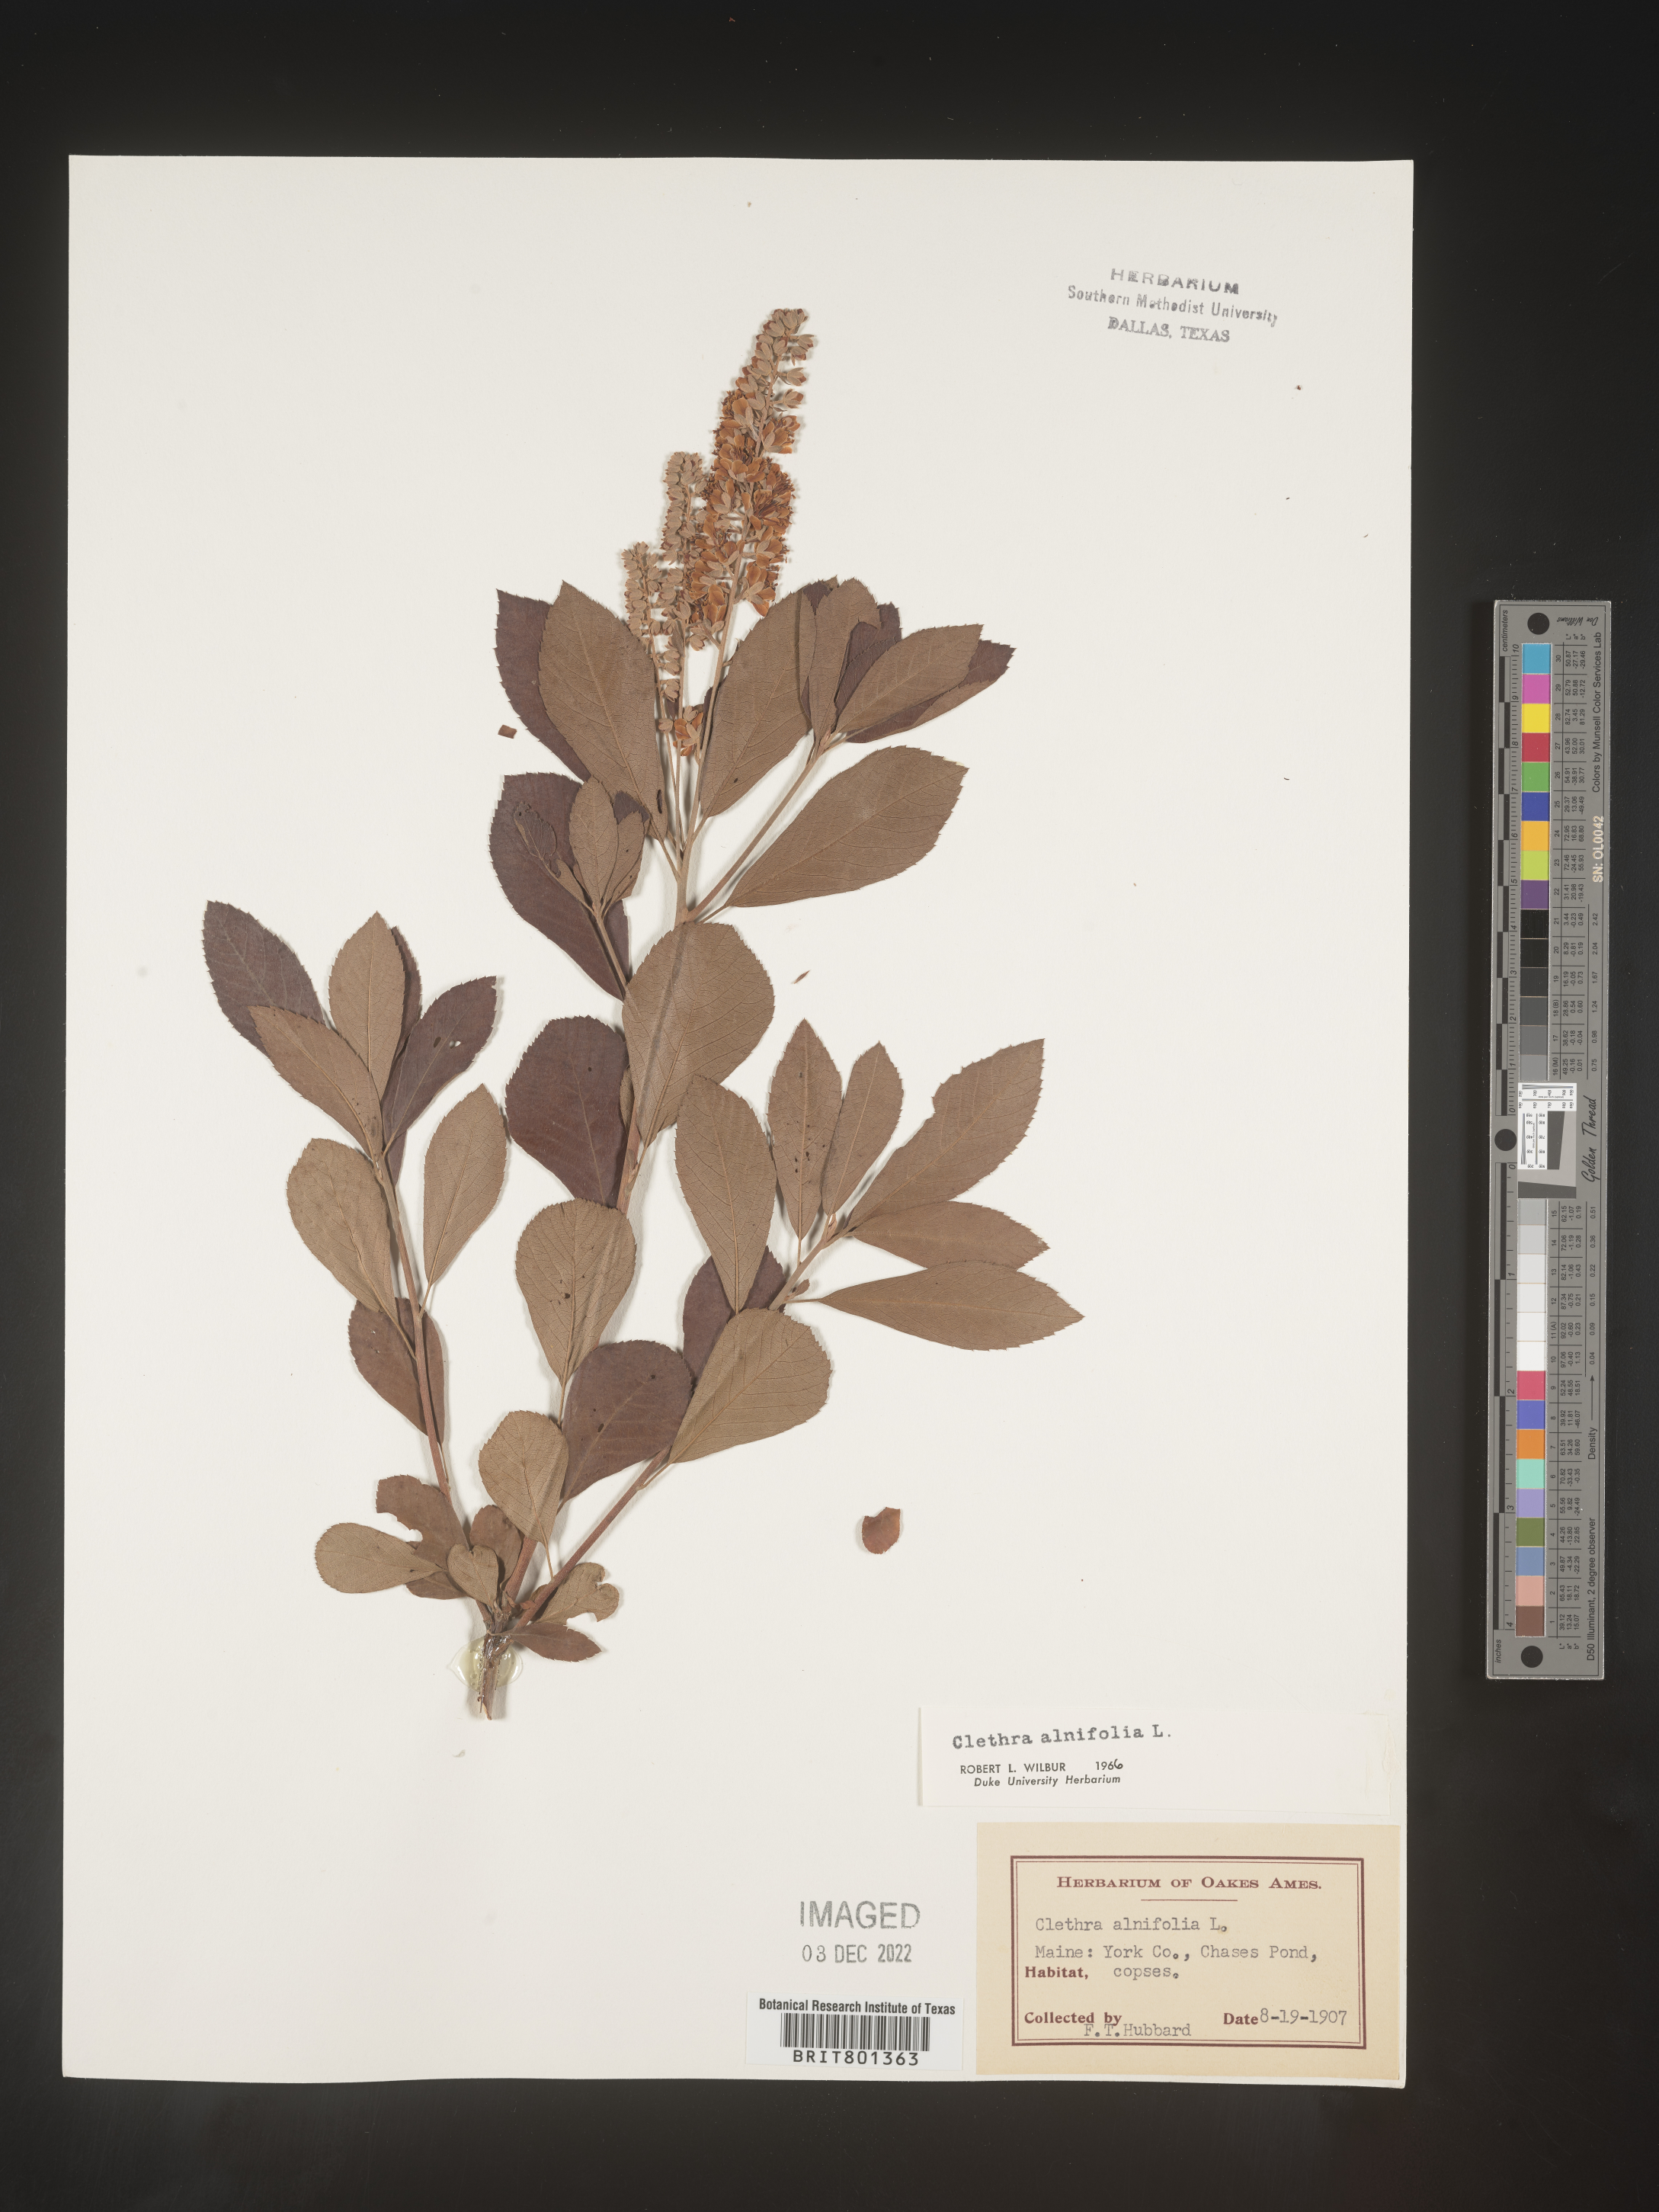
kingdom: Plantae
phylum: Tracheophyta
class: Magnoliopsida
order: Ericales
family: Clethraceae
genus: Clethra
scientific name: Clethra alnifolia
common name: Sweet pepperbush
